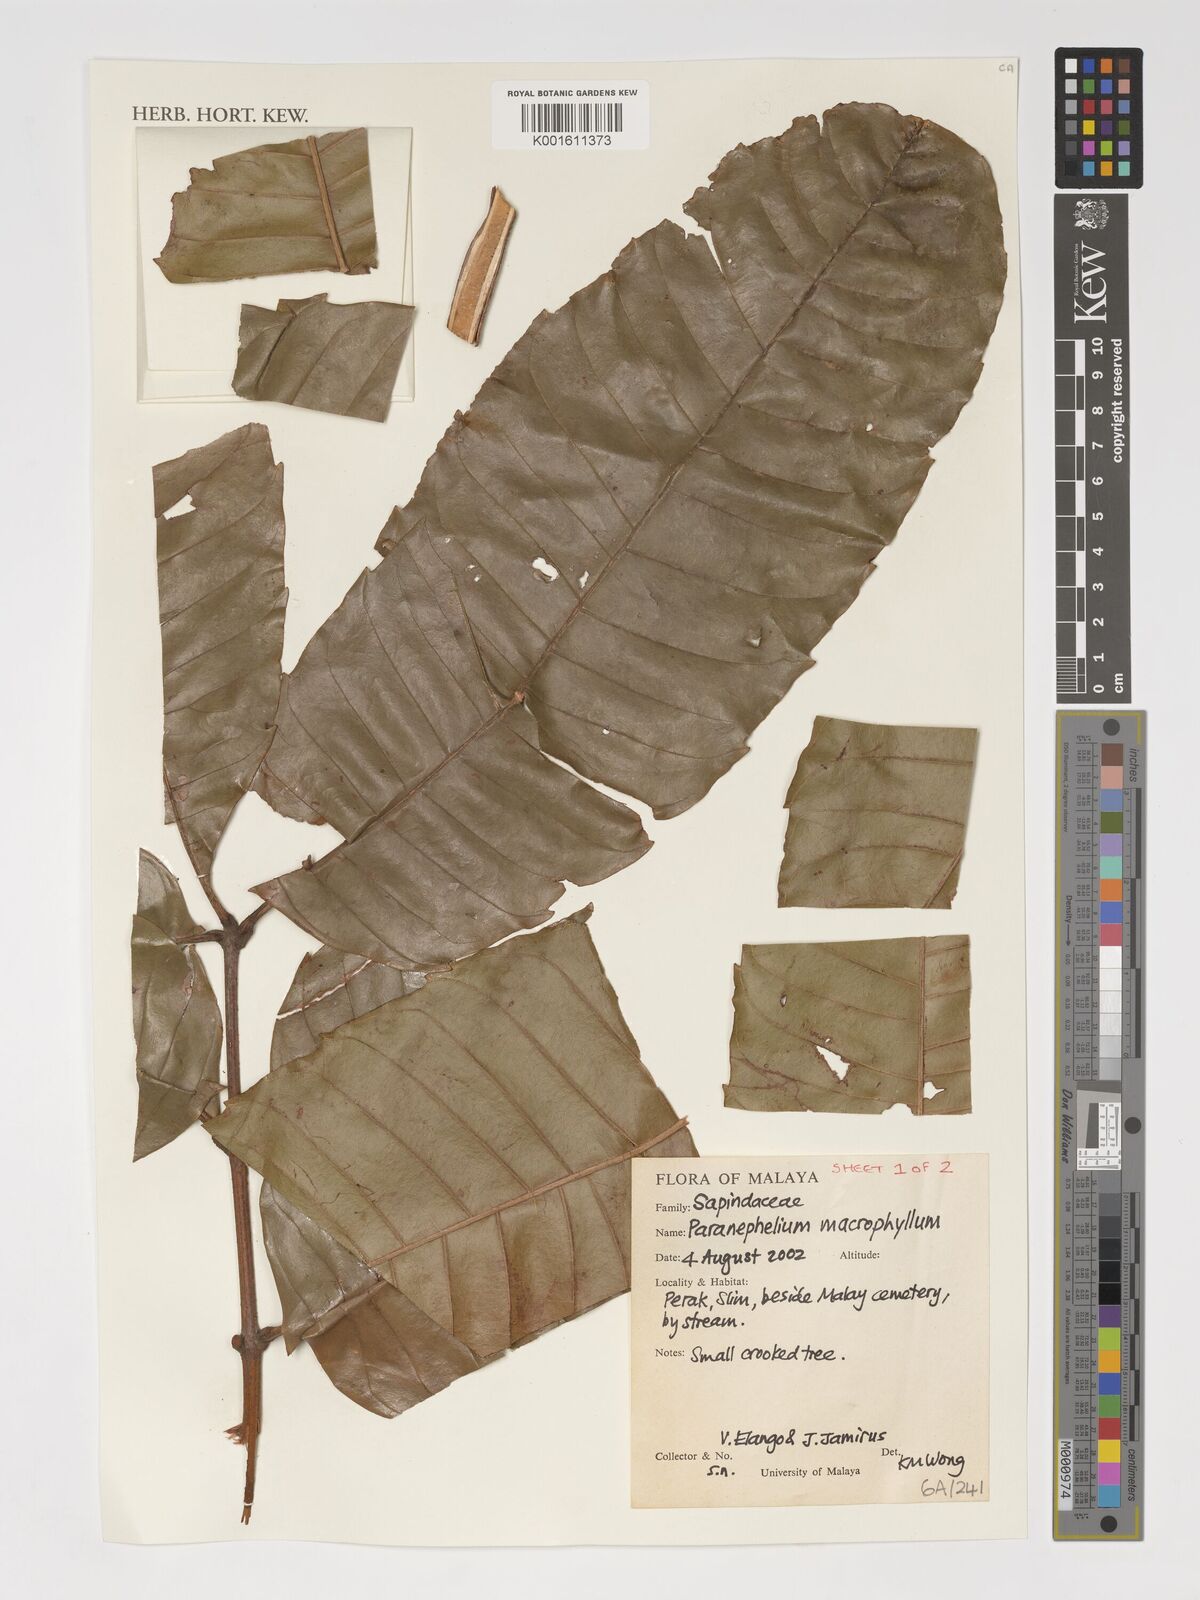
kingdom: Plantae
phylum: Tracheophyta
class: Magnoliopsida
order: Sapindales
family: Sapindaceae
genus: Paranephelium
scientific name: Paranephelium macrophyllum
